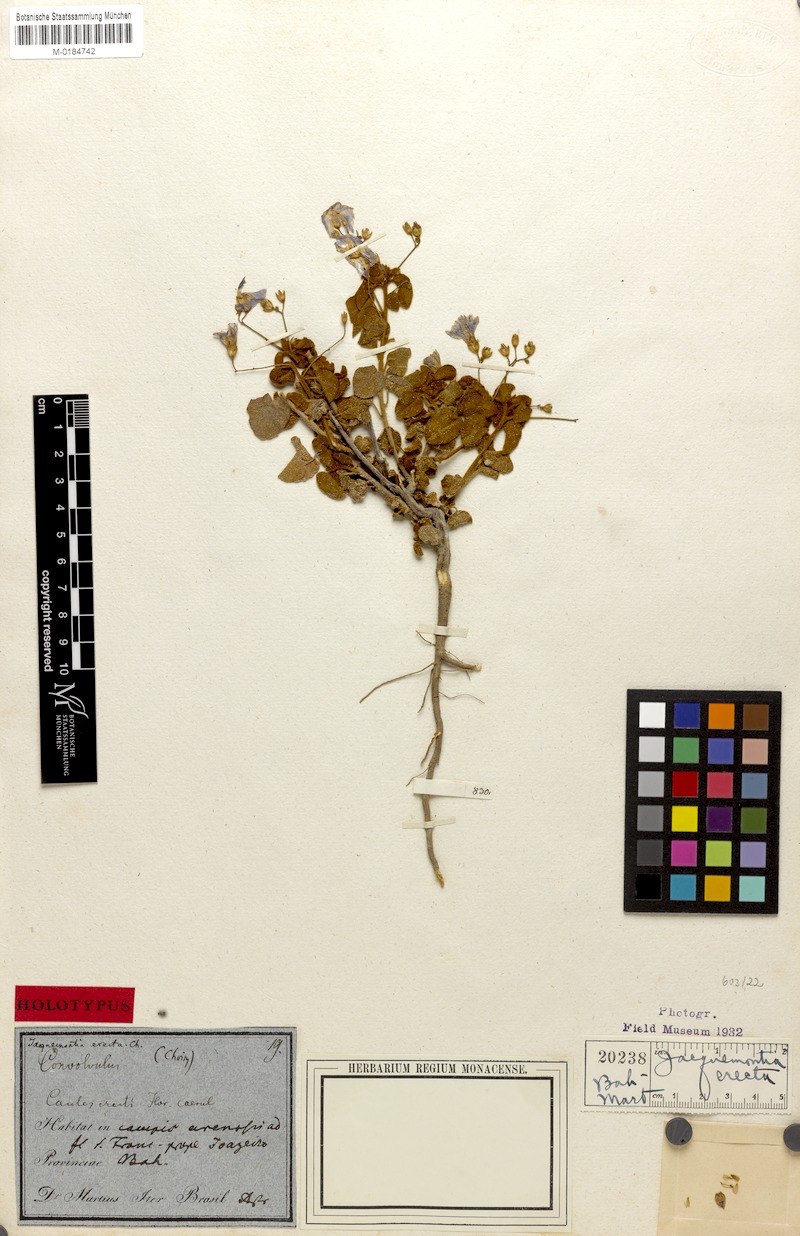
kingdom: Plantae
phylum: Tracheophyta
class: Magnoliopsida
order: Solanales
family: Convolvulaceae
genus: Jacquemontia
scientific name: Jacquemontia evolvuloides
